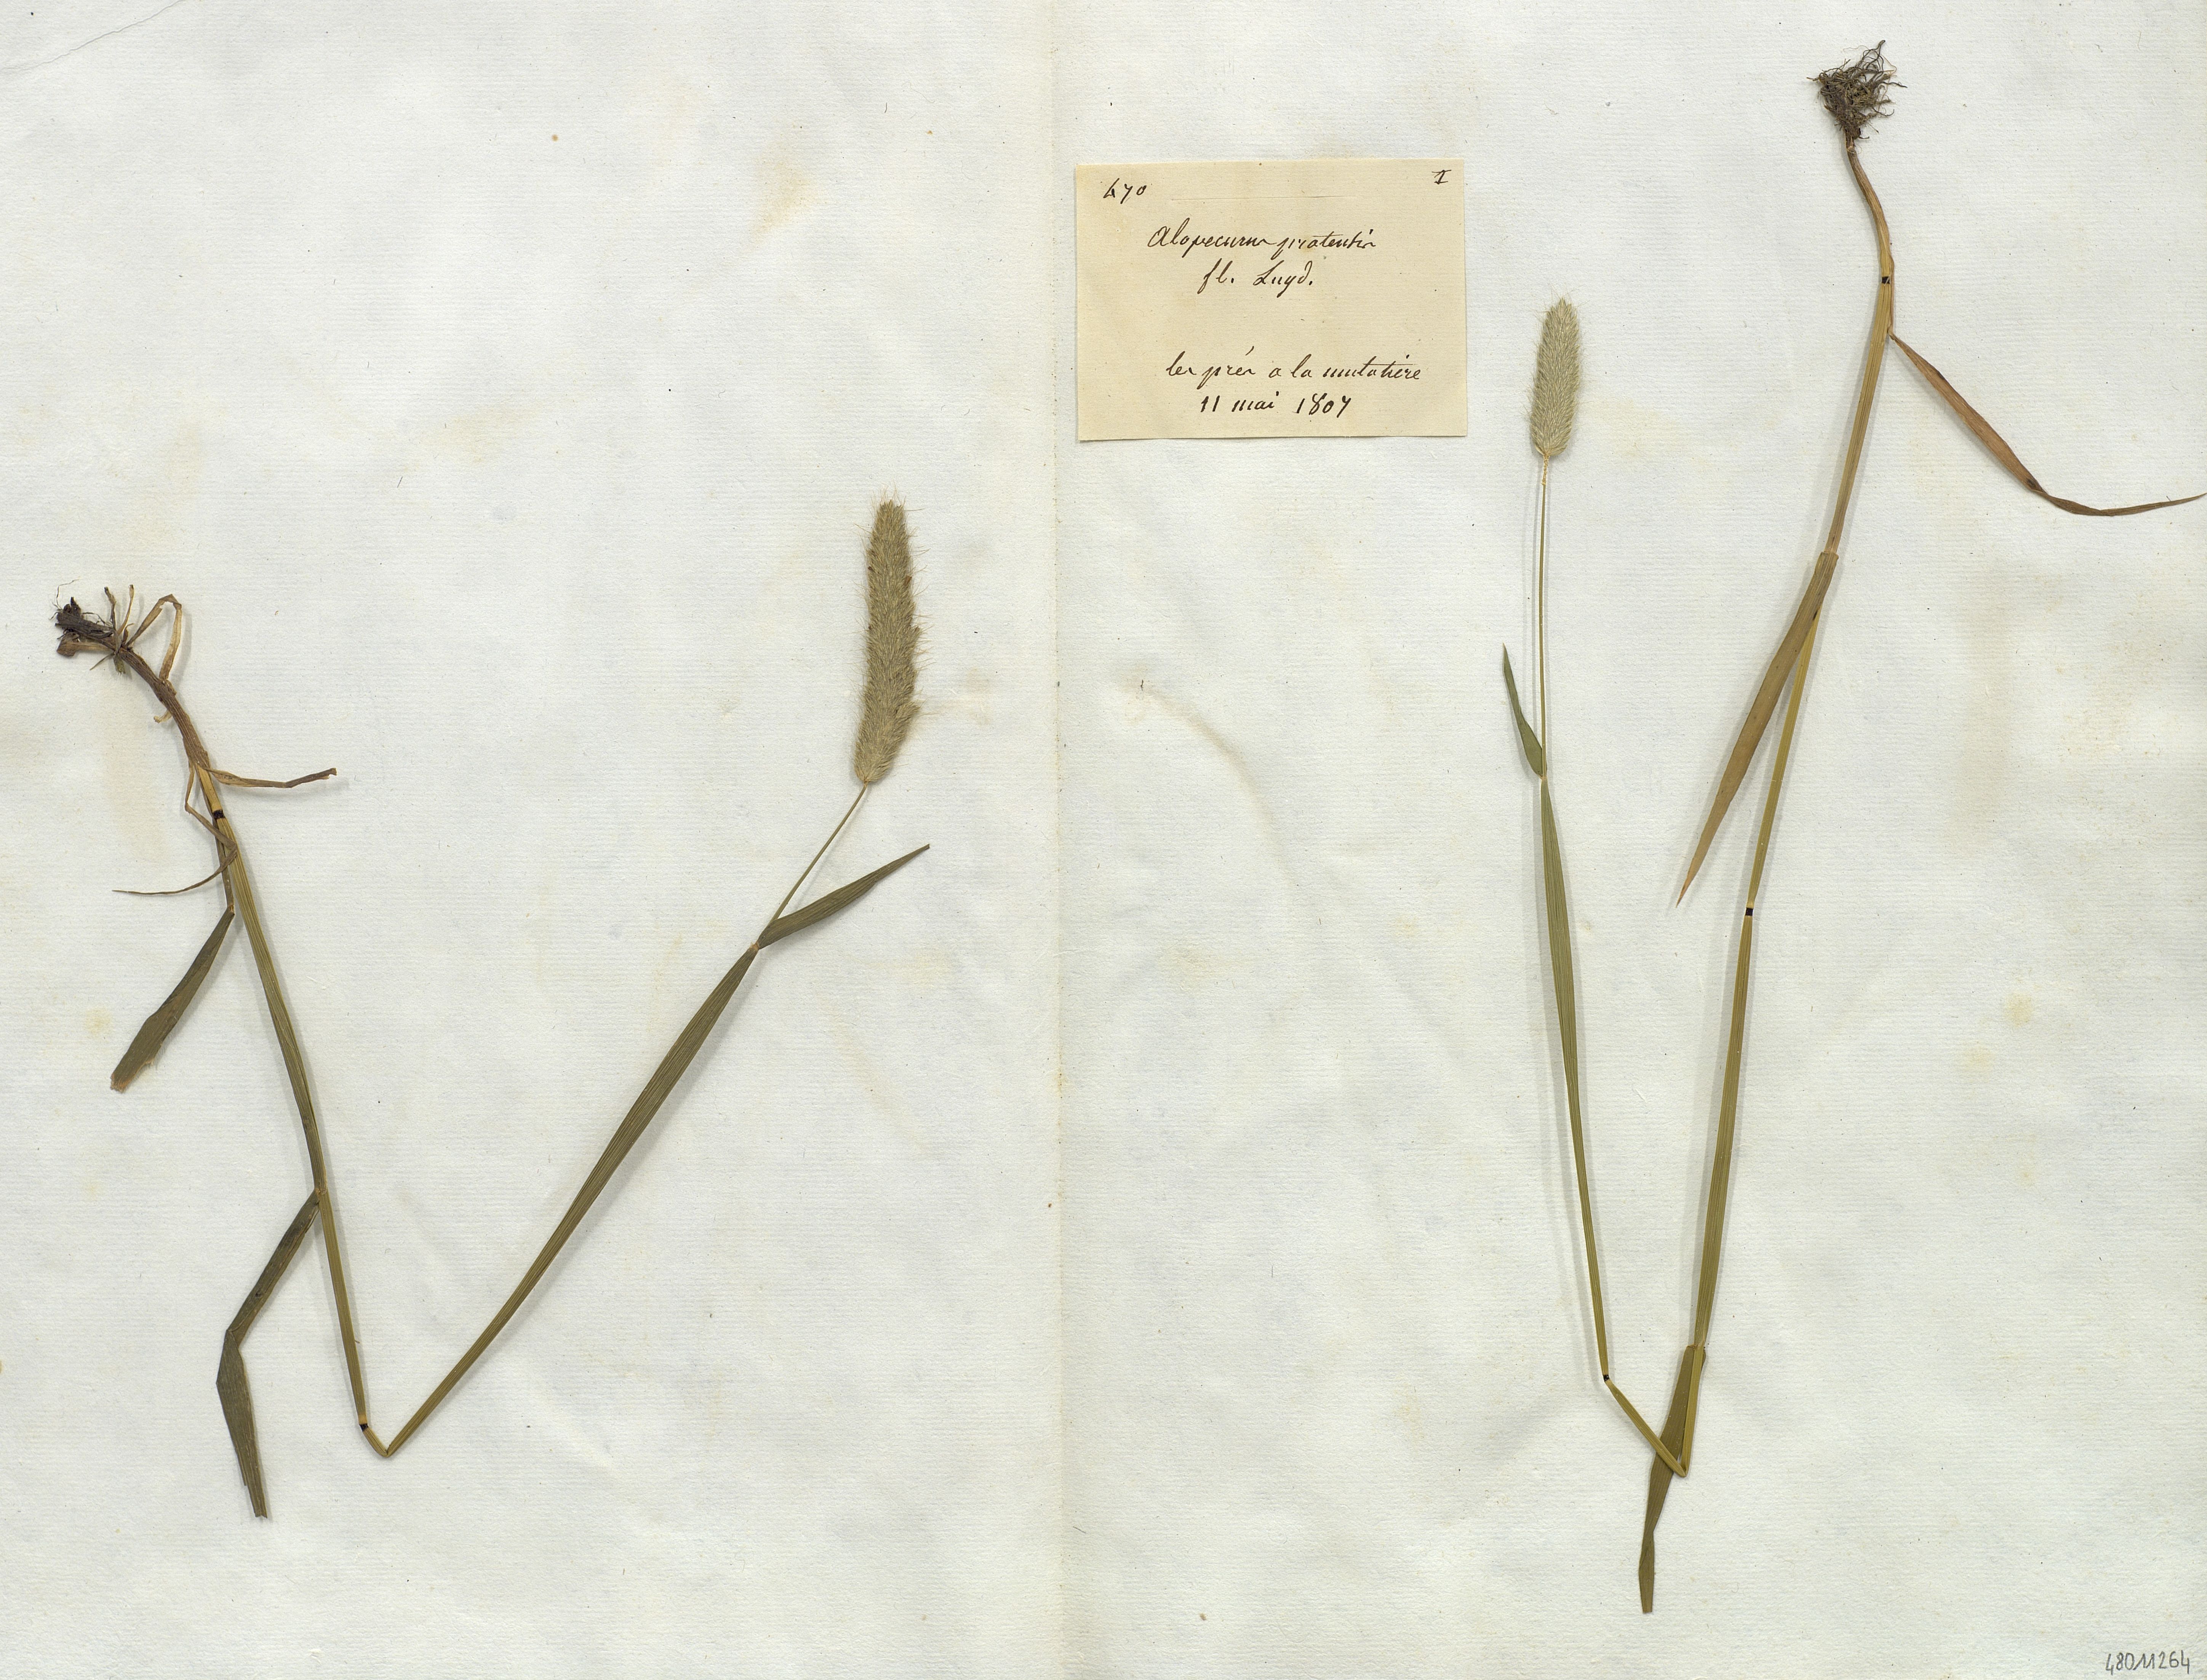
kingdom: Plantae
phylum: Tracheophyta
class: Liliopsida
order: Poales
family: Poaceae
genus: Alopecurus
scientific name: Alopecurus pratensis
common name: Meadow foxtail
